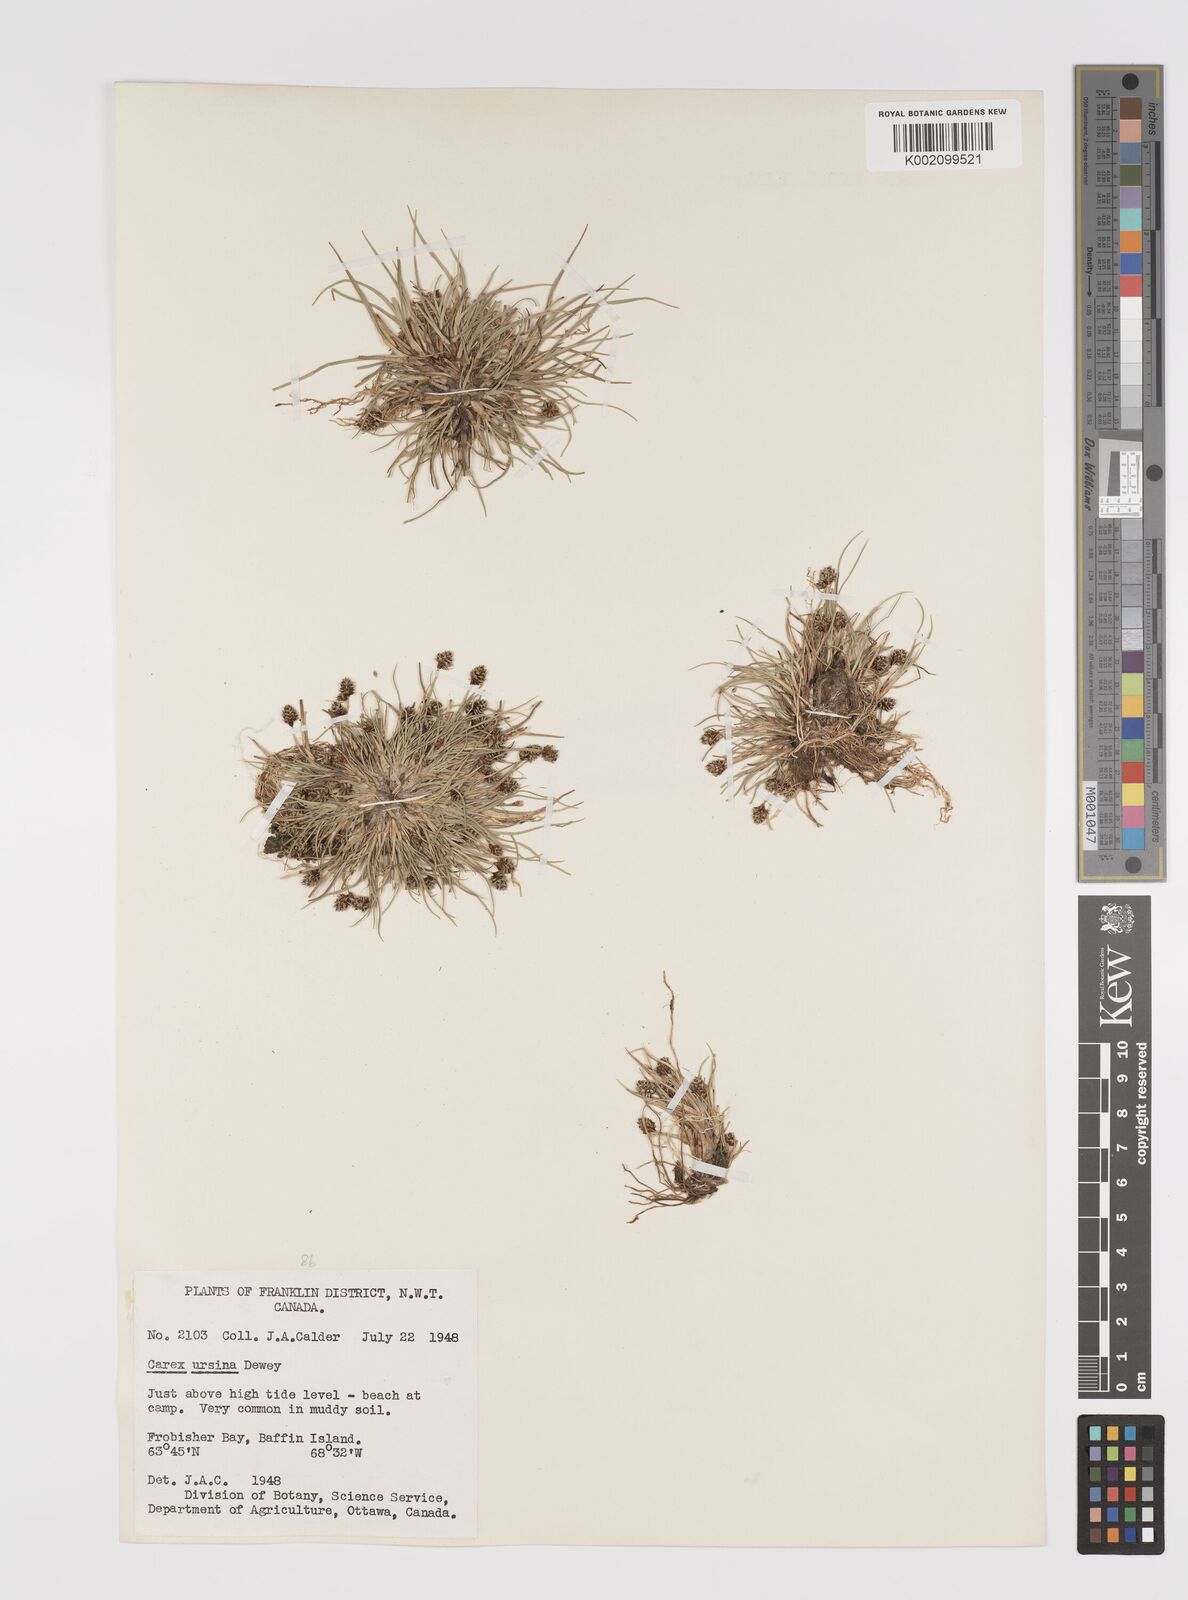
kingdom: Plantae
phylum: Tracheophyta
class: Liliopsida
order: Poales
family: Cyperaceae
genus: Carex
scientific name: Carex ursina
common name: Bear sedge
